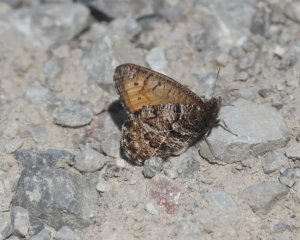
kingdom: Animalia
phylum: Arthropoda
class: Insecta
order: Lepidoptera
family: Nymphalidae
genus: Oeneis
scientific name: Oeneis chryxus
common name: Chryxus Arctic
